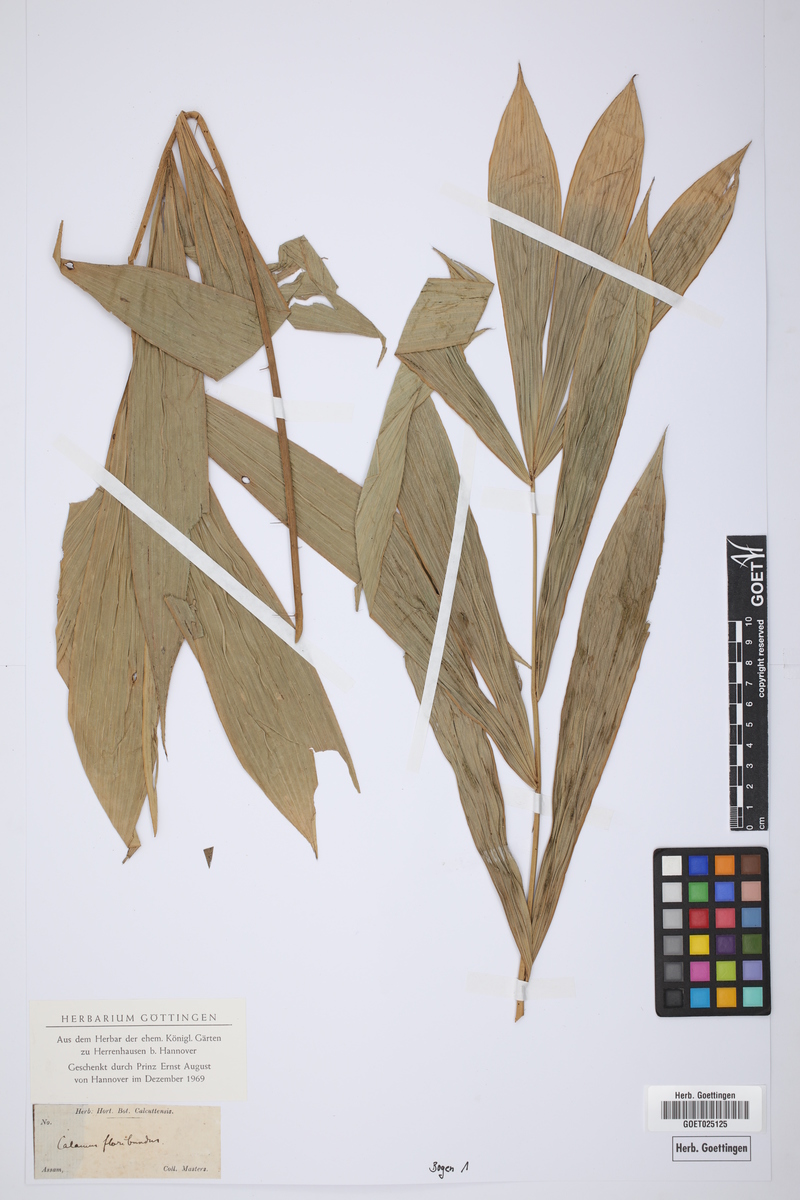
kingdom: Plantae
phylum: Tracheophyta
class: Liliopsida
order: Arecales
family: Arecaceae
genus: Calamus
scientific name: Calamus floribundus
